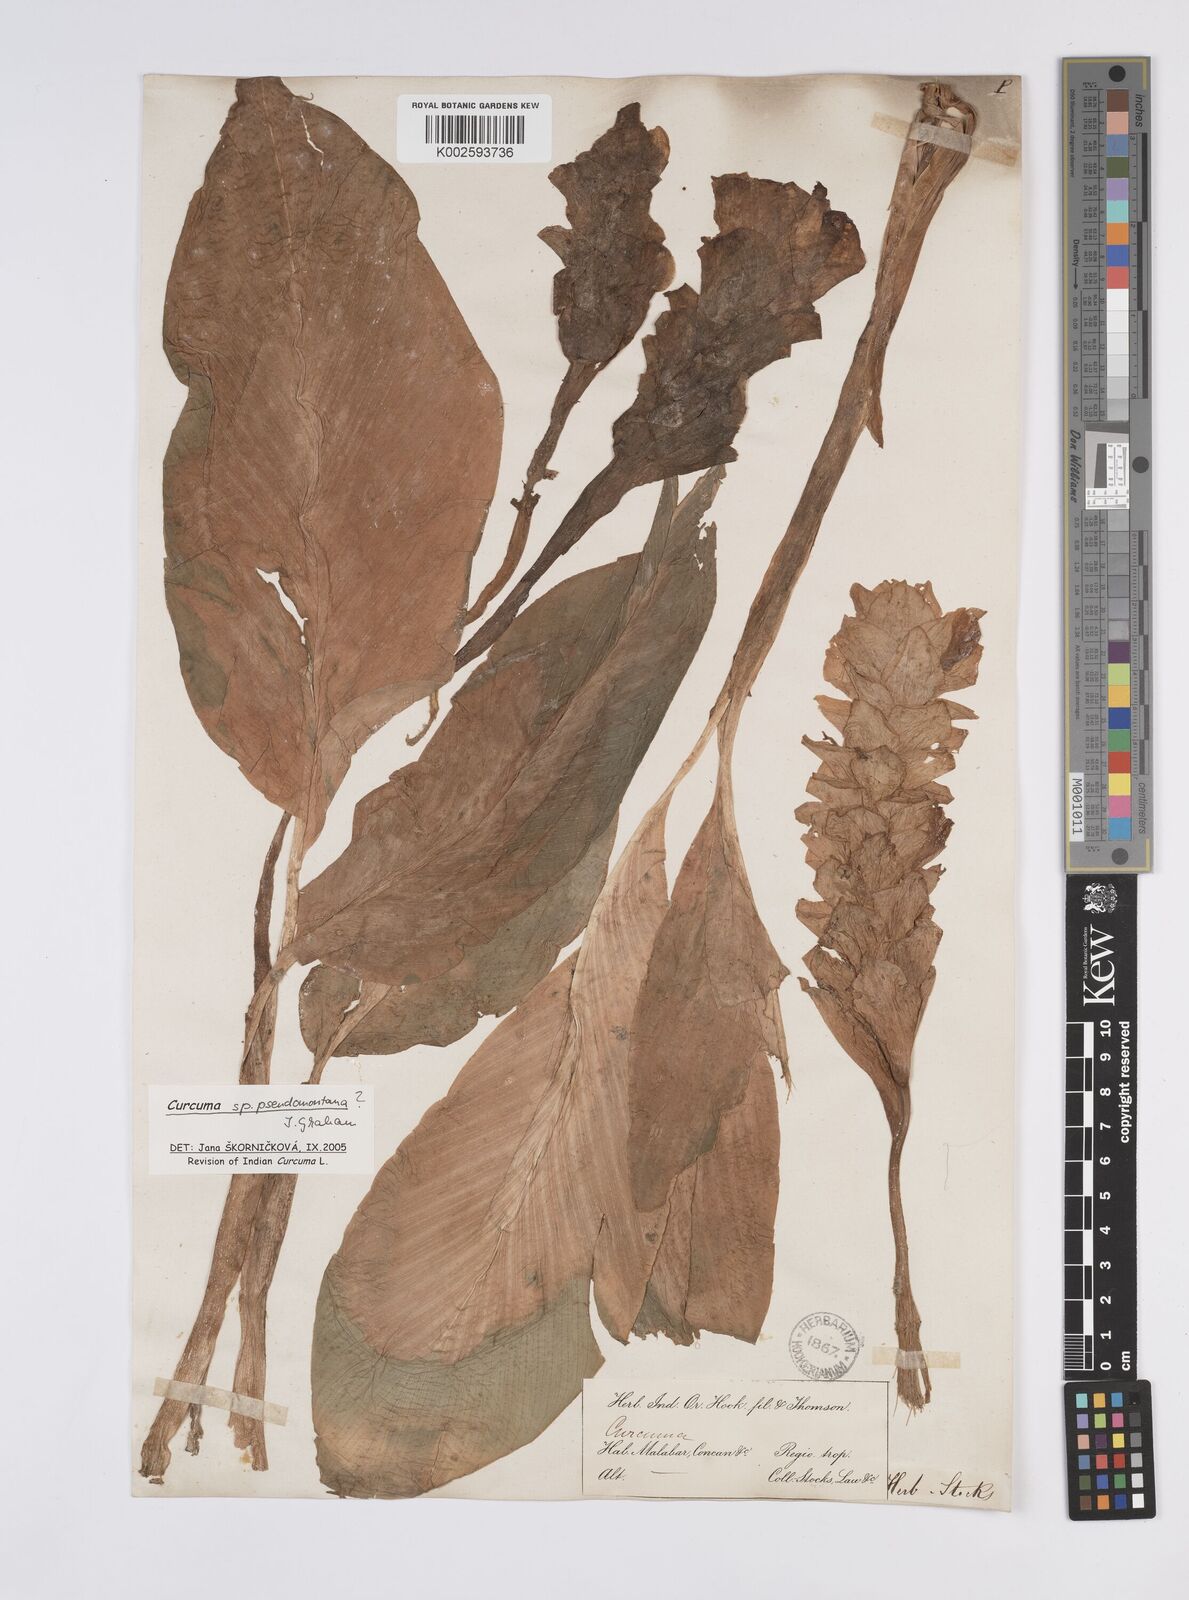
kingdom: Plantae
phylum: Tracheophyta
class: Liliopsida
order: Zingiberales
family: Zingiberaceae
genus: Curcuma
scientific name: Curcuma pseudomontana
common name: Hill turmeric
